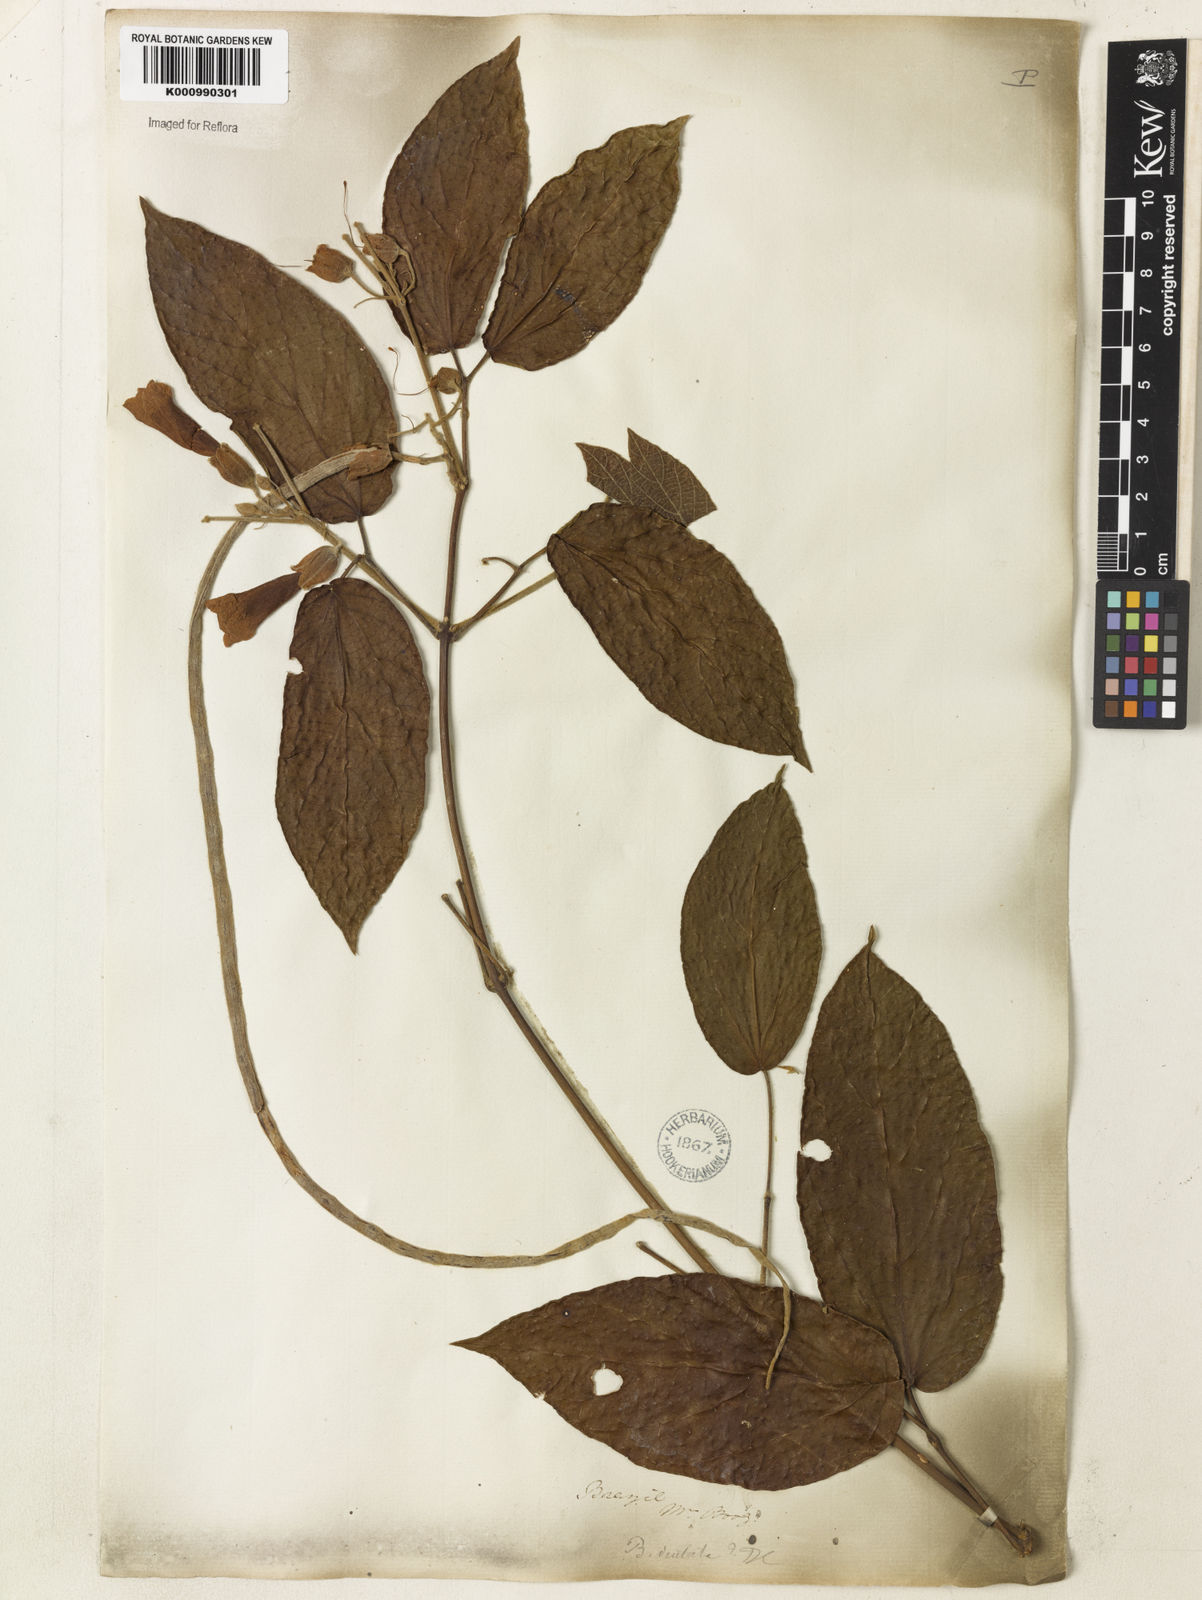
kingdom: Plantae
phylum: Tracheophyta
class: Magnoliopsida
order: Lamiales
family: Bignoniaceae
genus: Stizophyllum
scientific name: Stizophyllum perforatum
